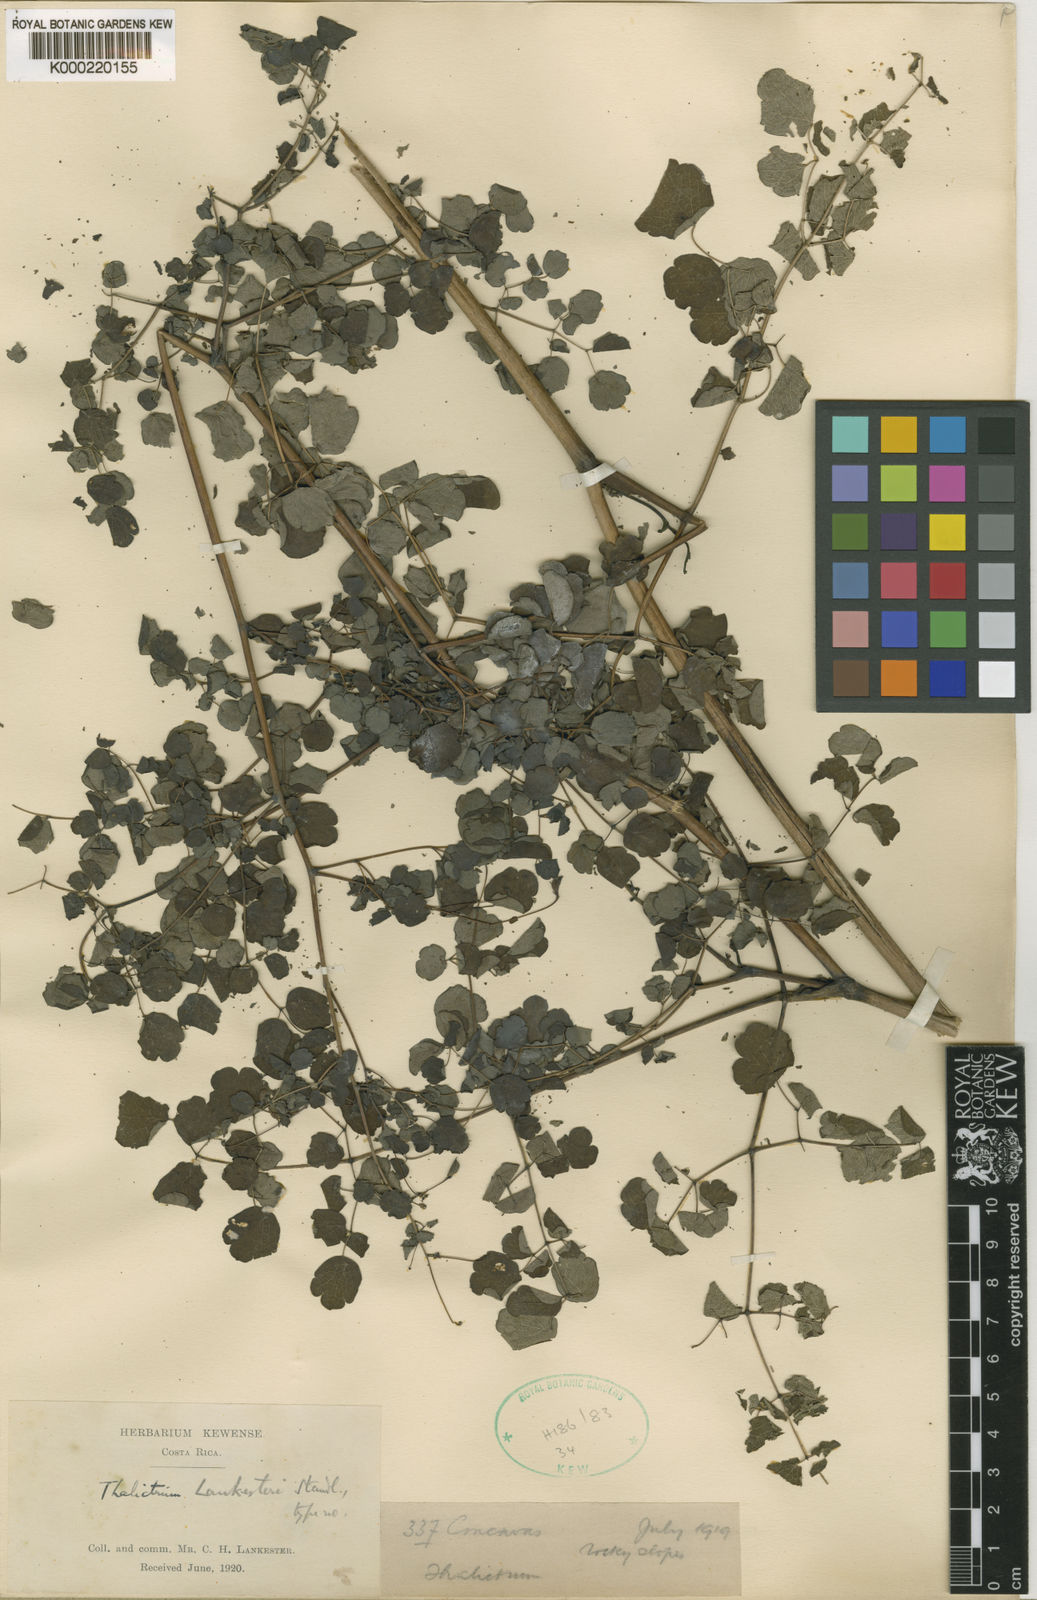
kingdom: Plantae
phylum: Tracheophyta
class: Magnoliopsida
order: Ranunculales
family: Ranunculaceae
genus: Thalictrum
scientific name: Thalictrum lankesteri
